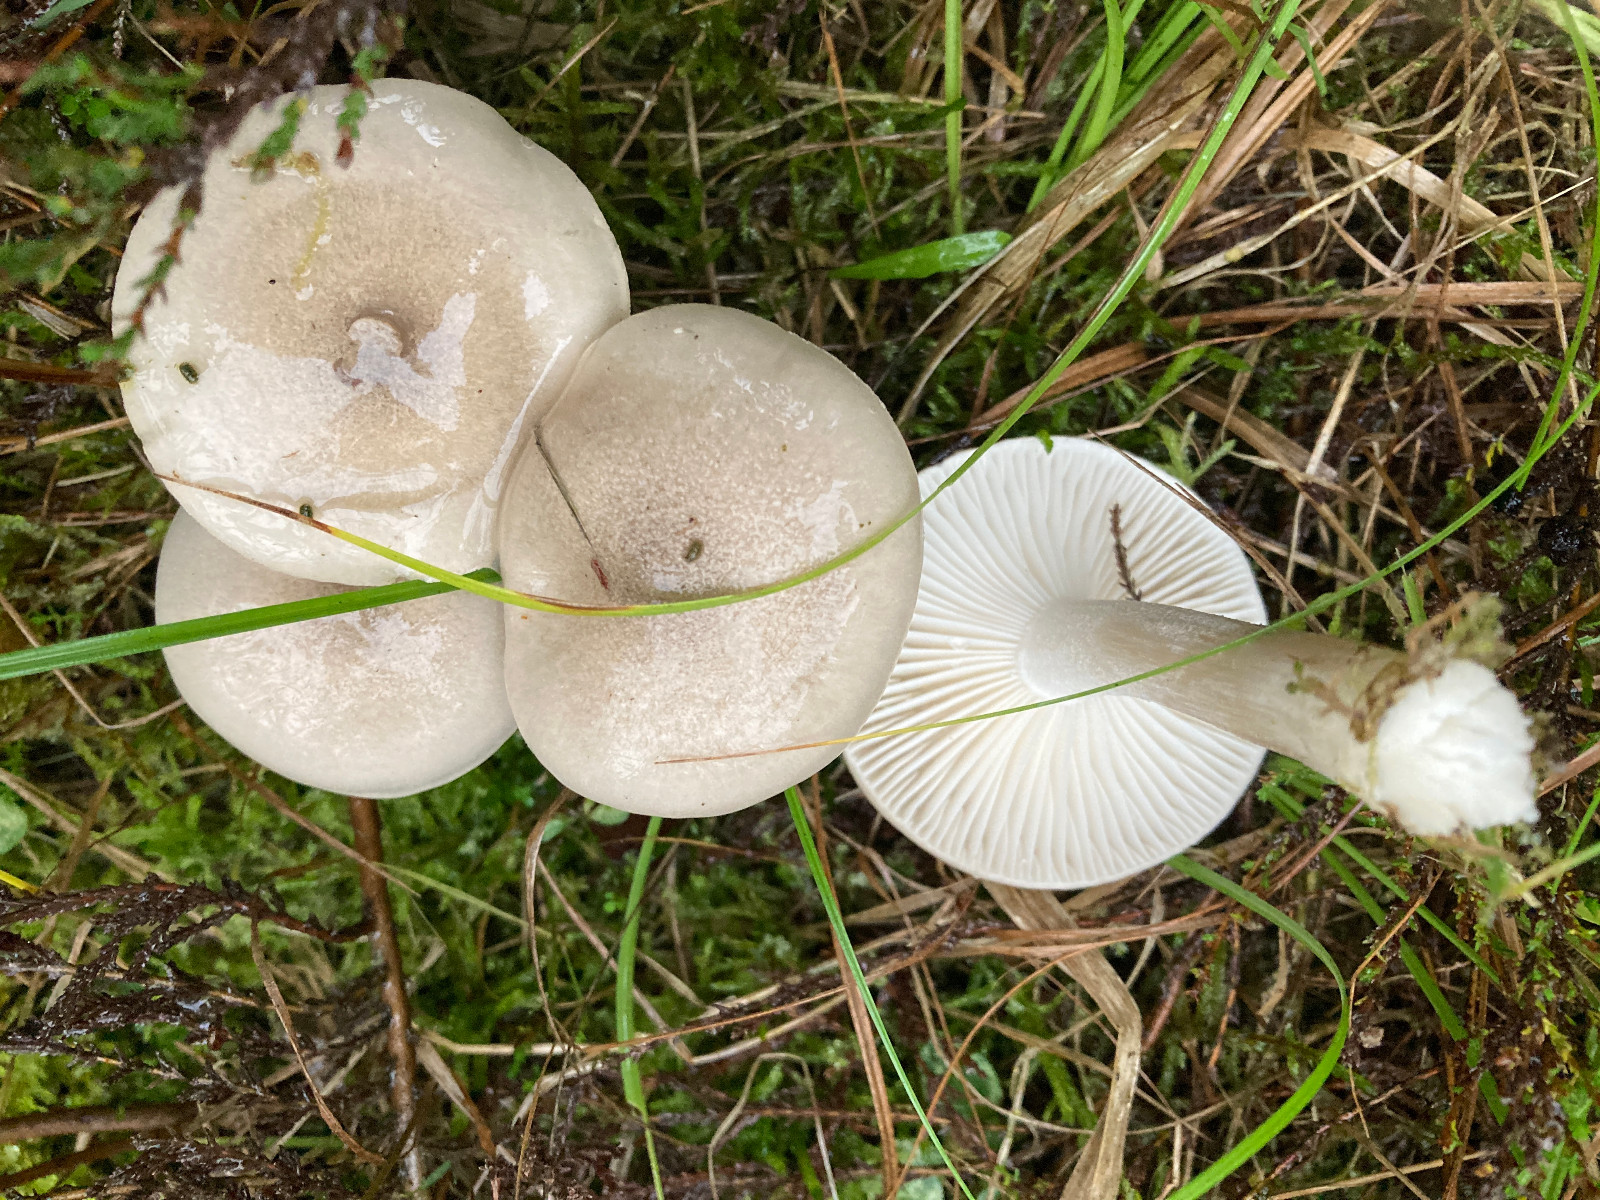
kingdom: Fungi
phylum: Basidiomycota
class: Agaricomycetes
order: Agaricales
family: Hygrophoraceae
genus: Hygrophorus
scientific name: Hygrophorus agathosmus
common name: vellugtende sneglehat
